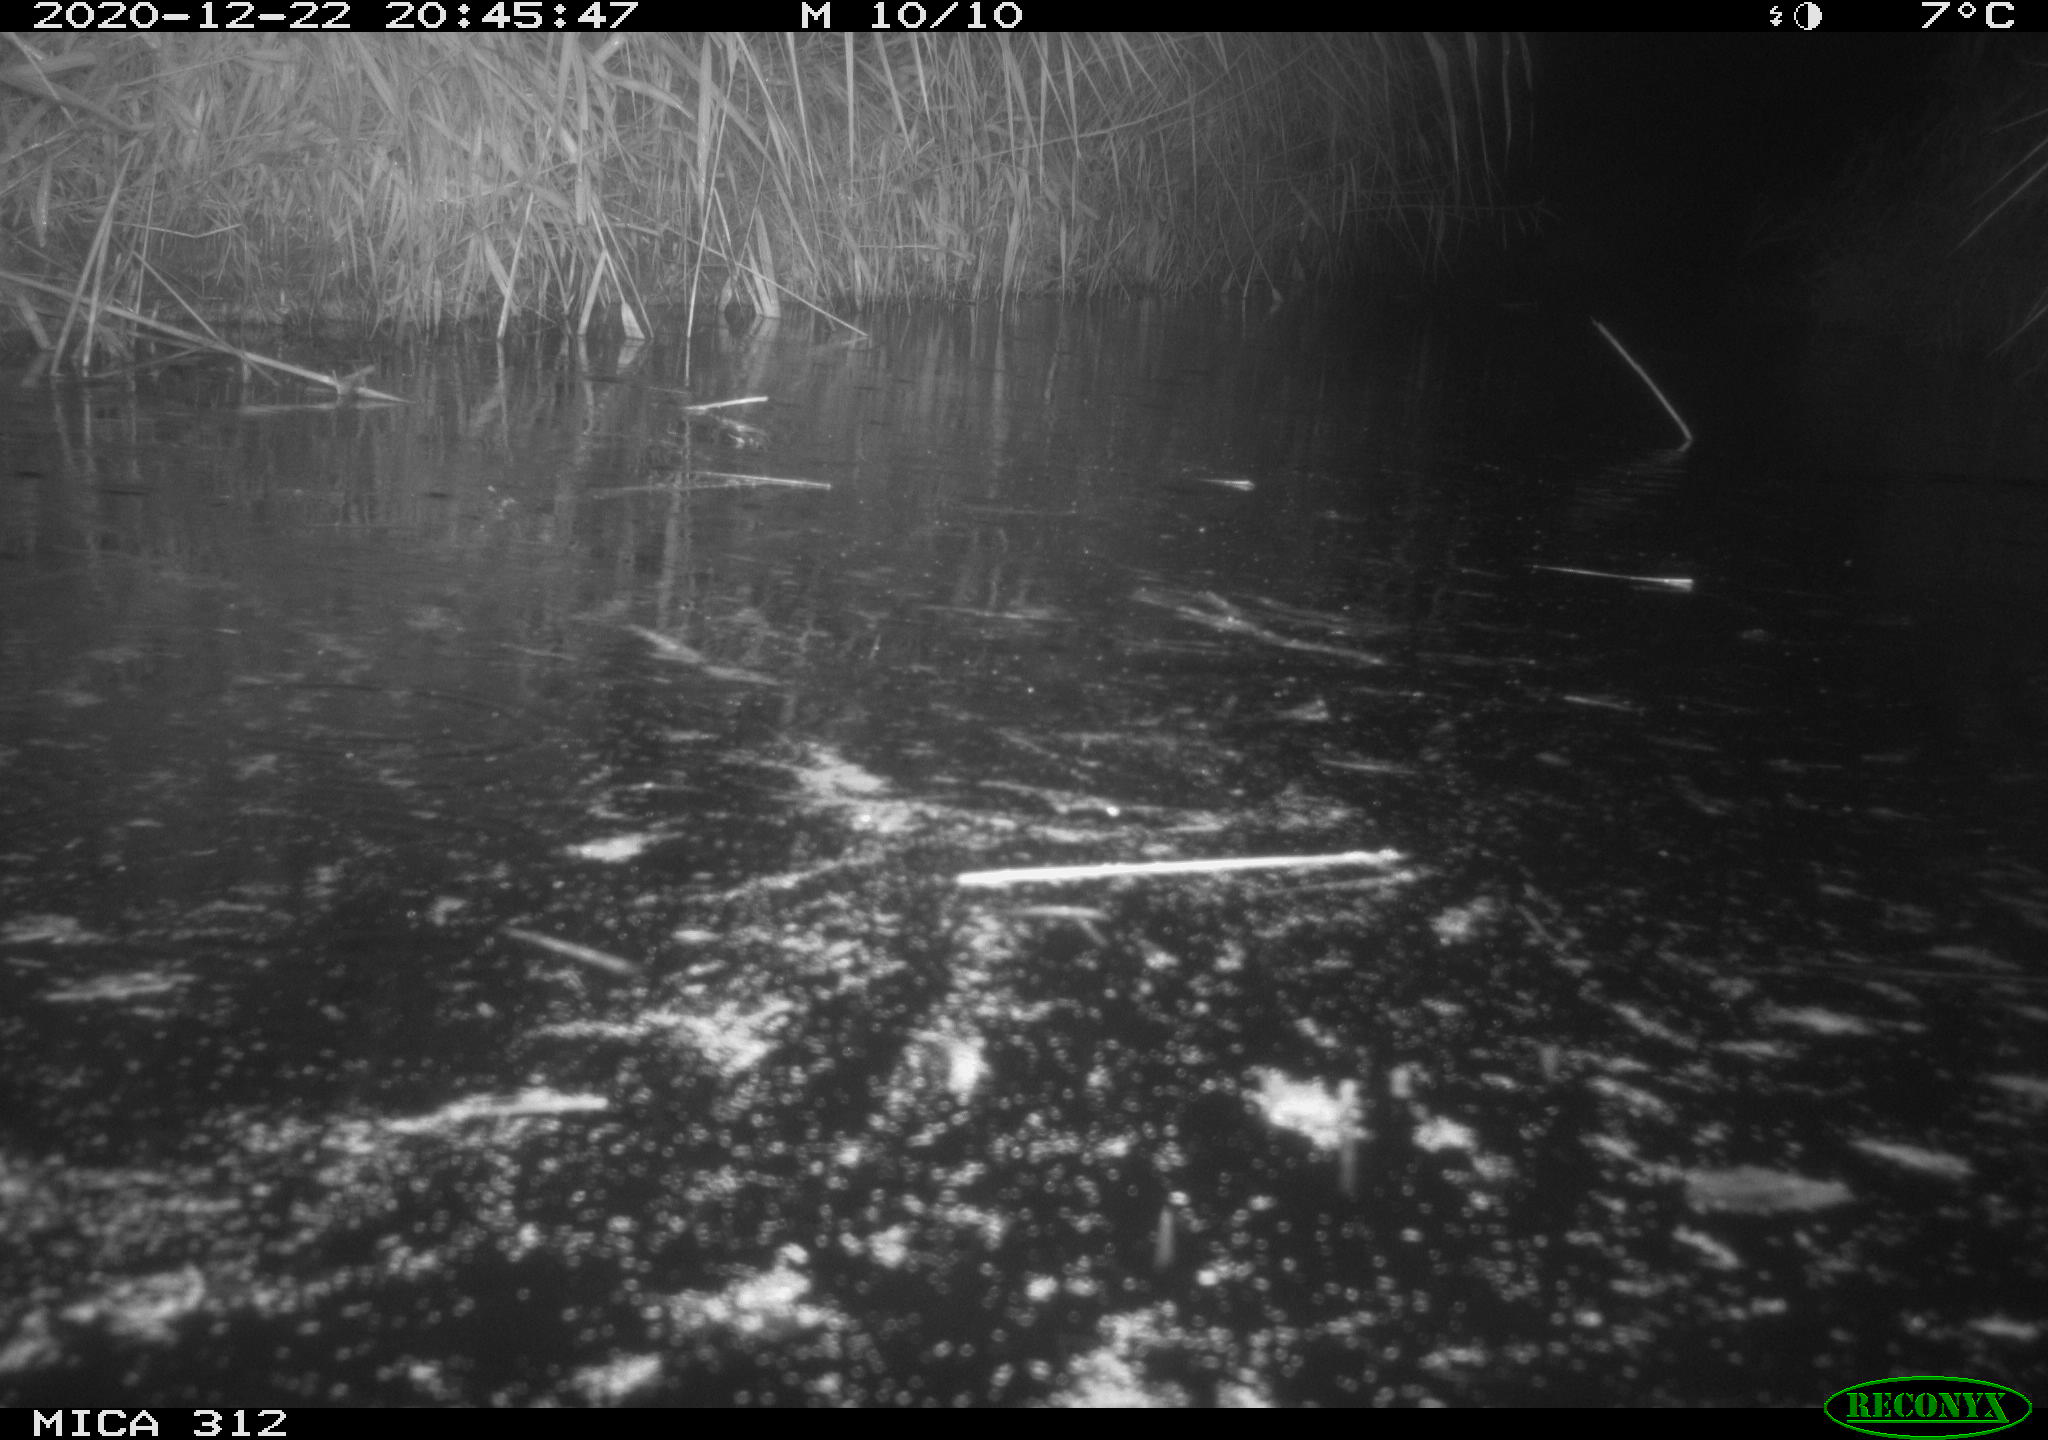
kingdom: Animalia
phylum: Chordata
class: Mammalia
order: Rodentia
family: Muridae
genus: Rattus
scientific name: Rattus norvegicus
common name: Brown rat
